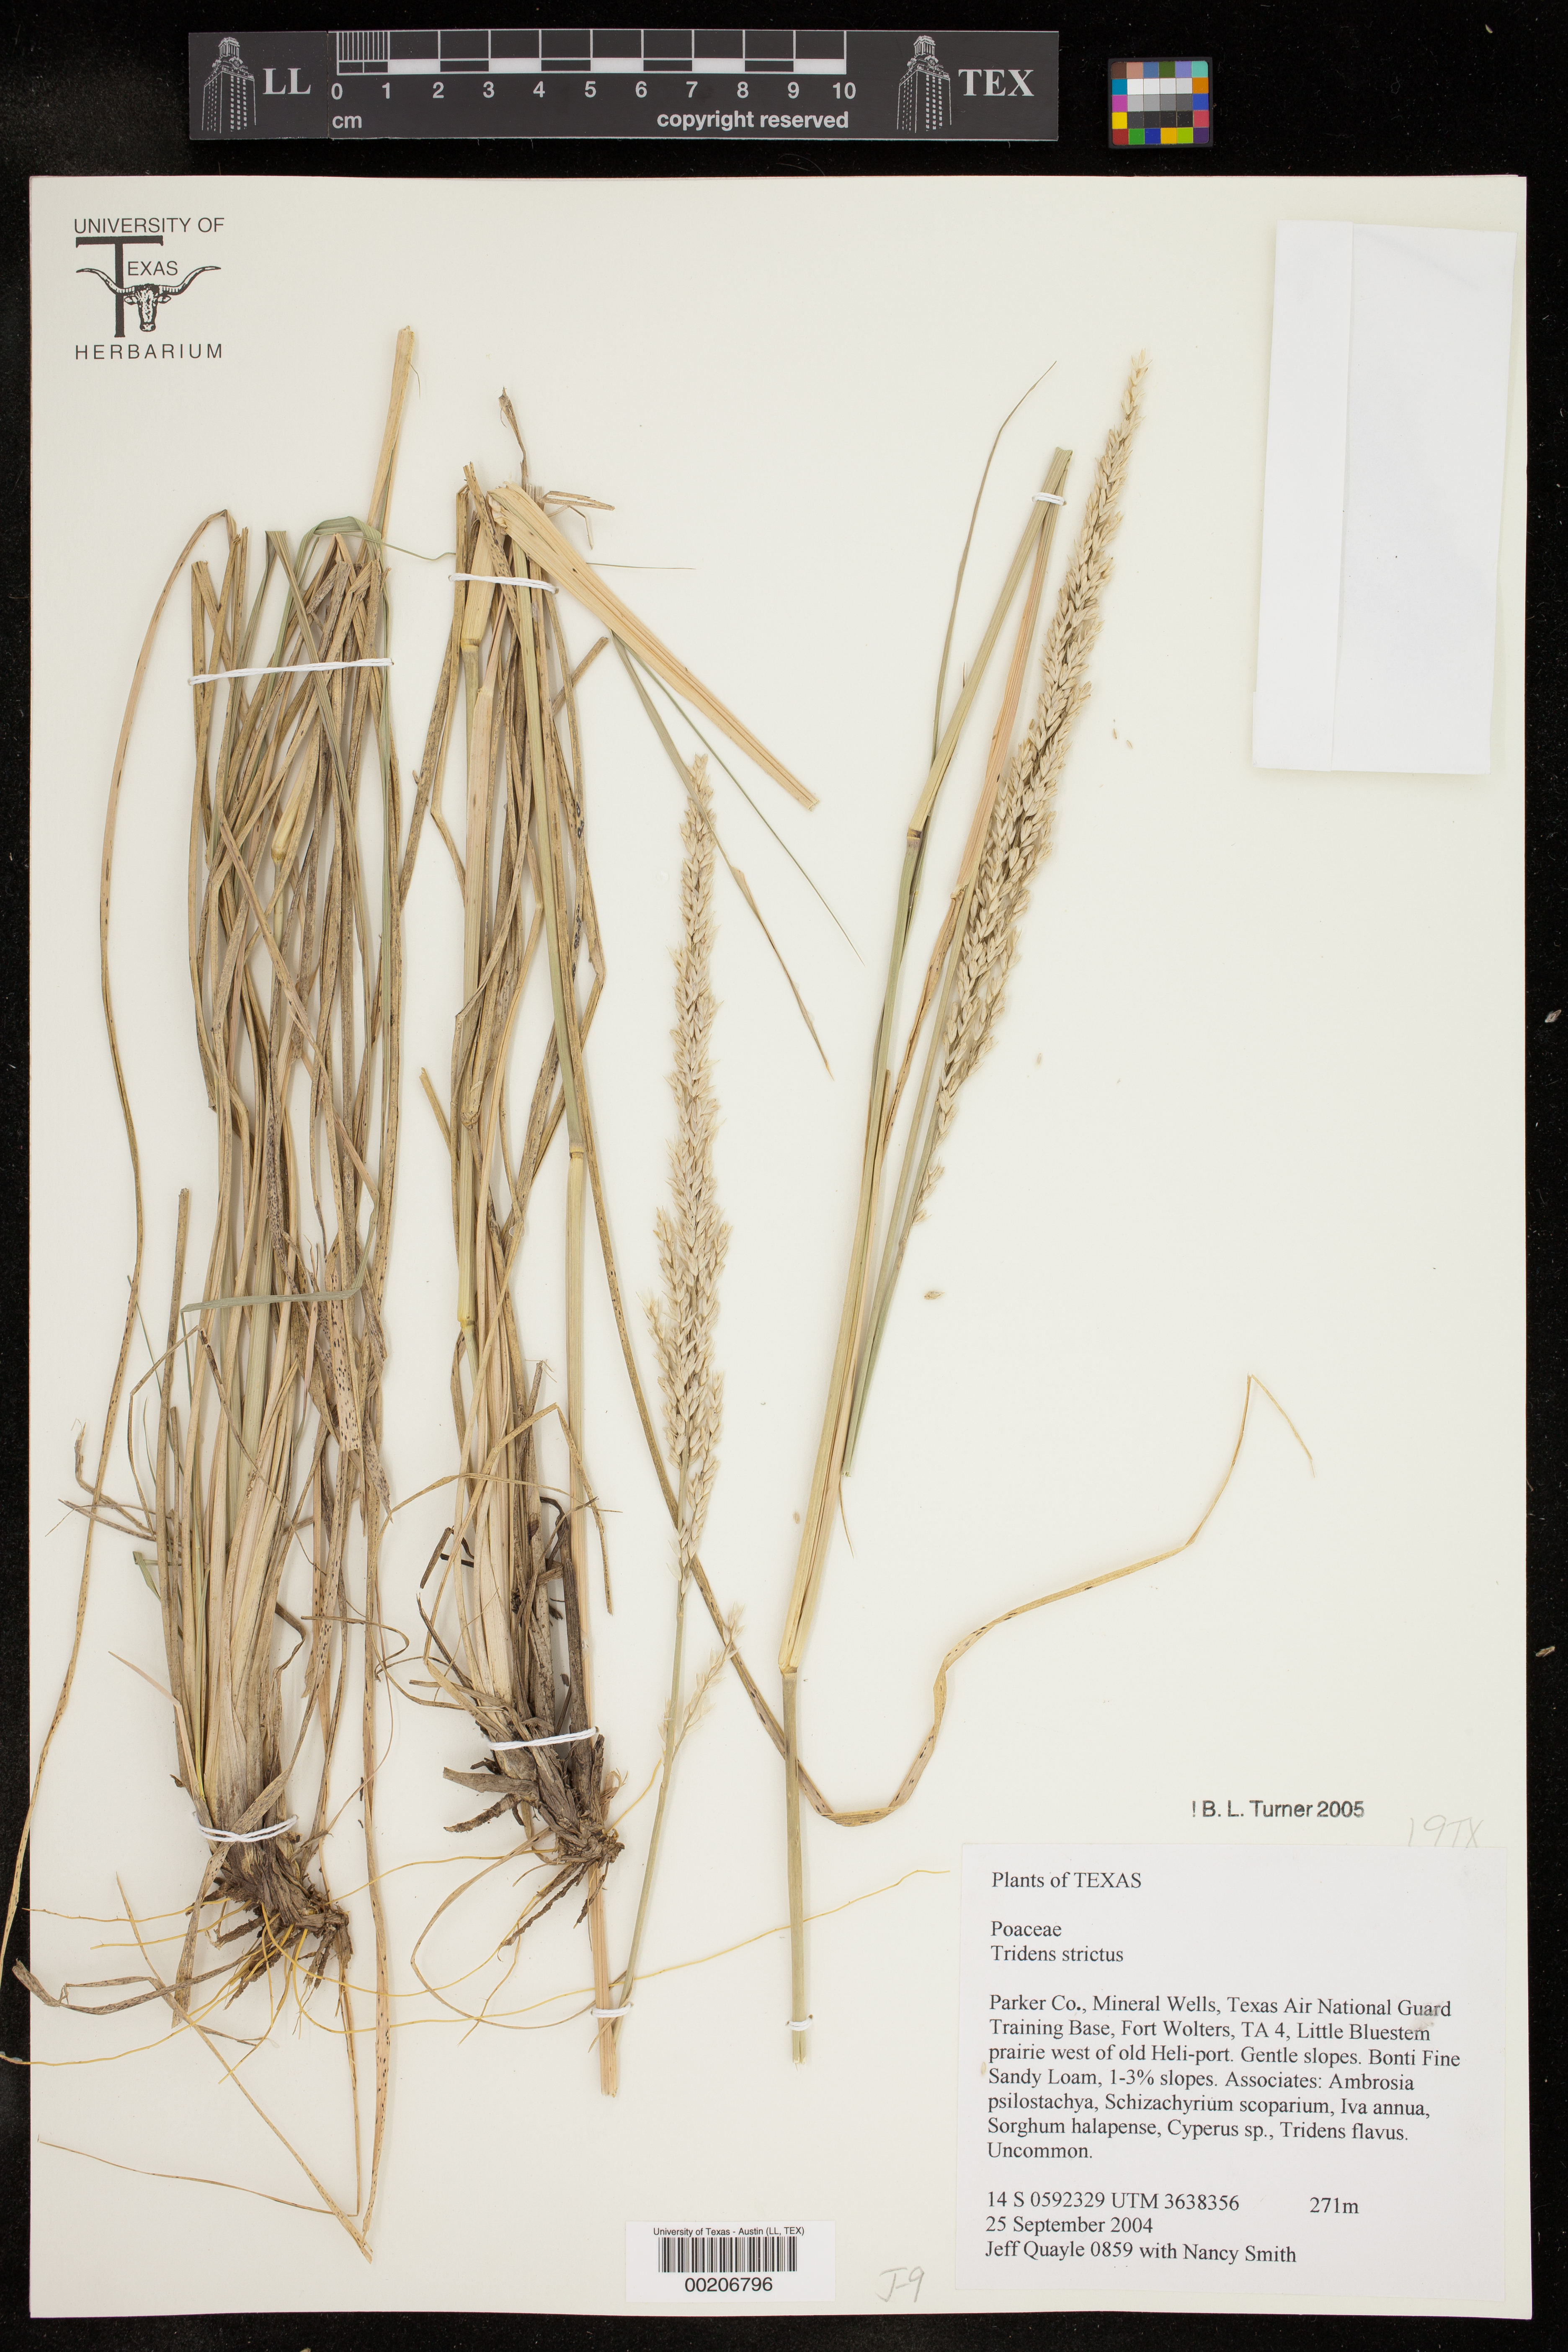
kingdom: Plantae
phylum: Tracheophyta
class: Liliopsida
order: Poales
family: Poaceae
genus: Tridens
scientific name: Tridens strictus
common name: Long-spike tridens
